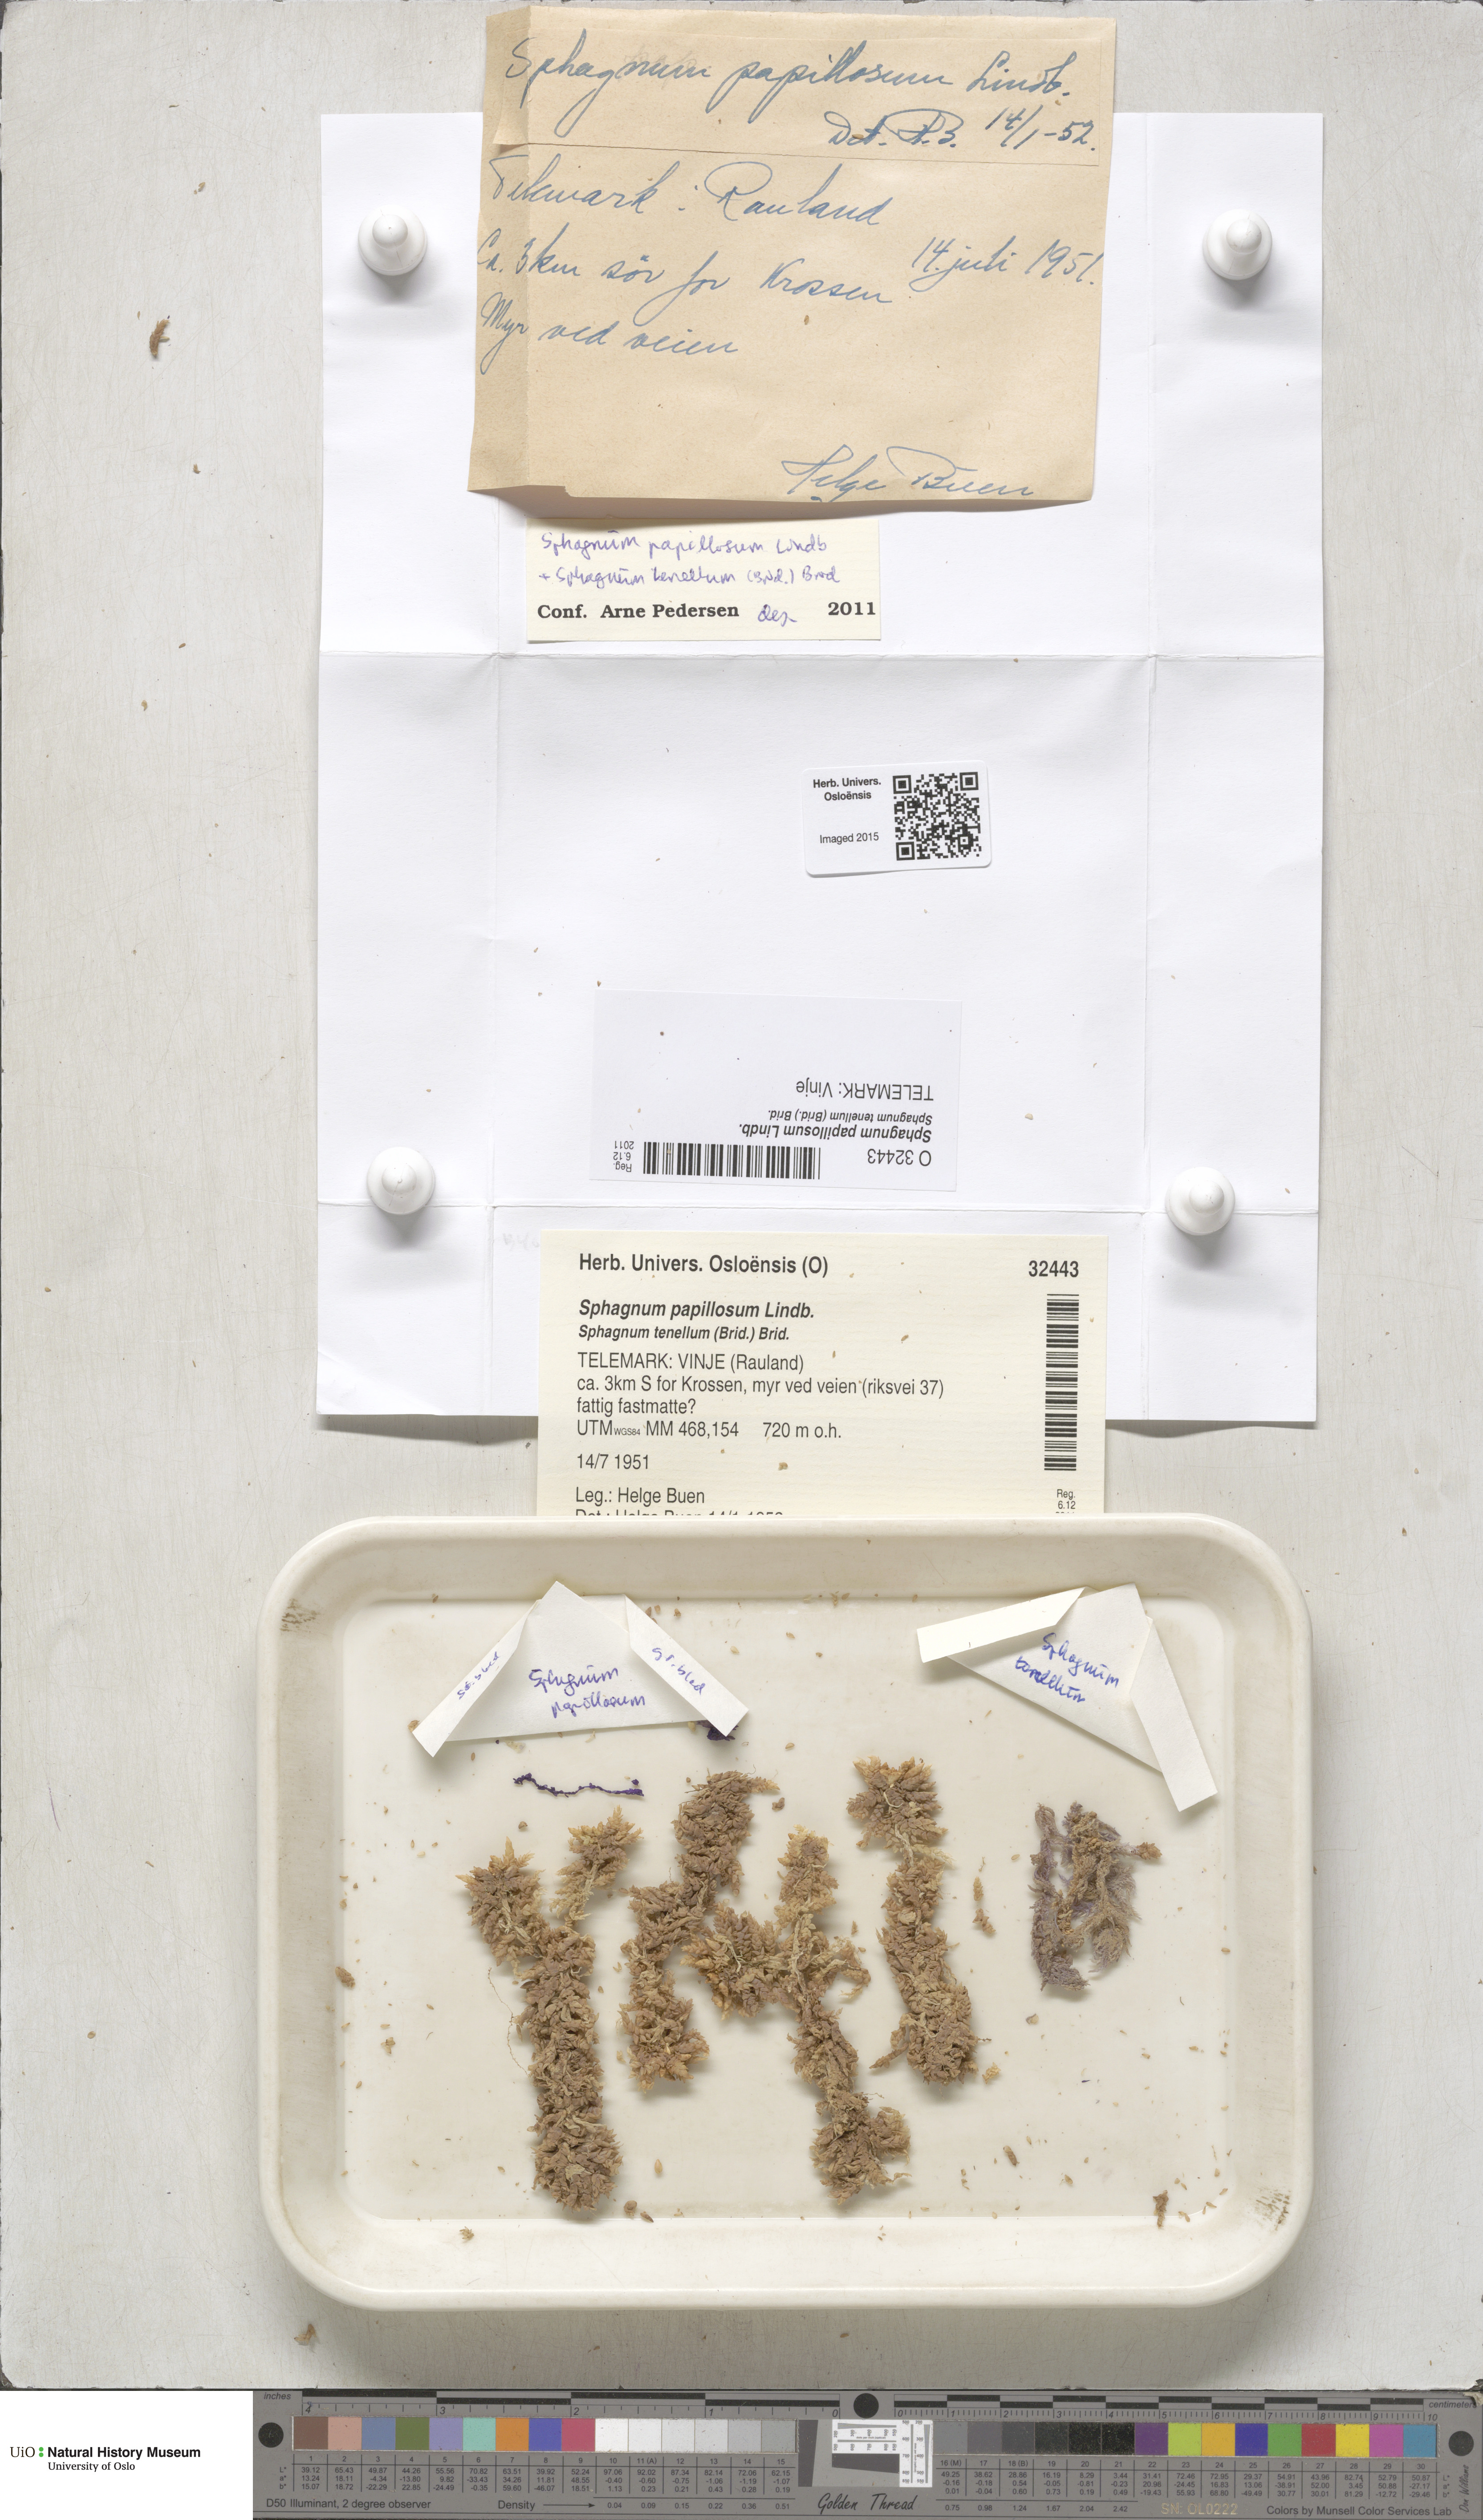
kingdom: Plantae
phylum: Bryophyta
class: Sphagnopsida
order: Sphagnales
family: Sphagnaceae
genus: Sphagnum
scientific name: Sphagnum papillosum
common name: Papillose peat moss
